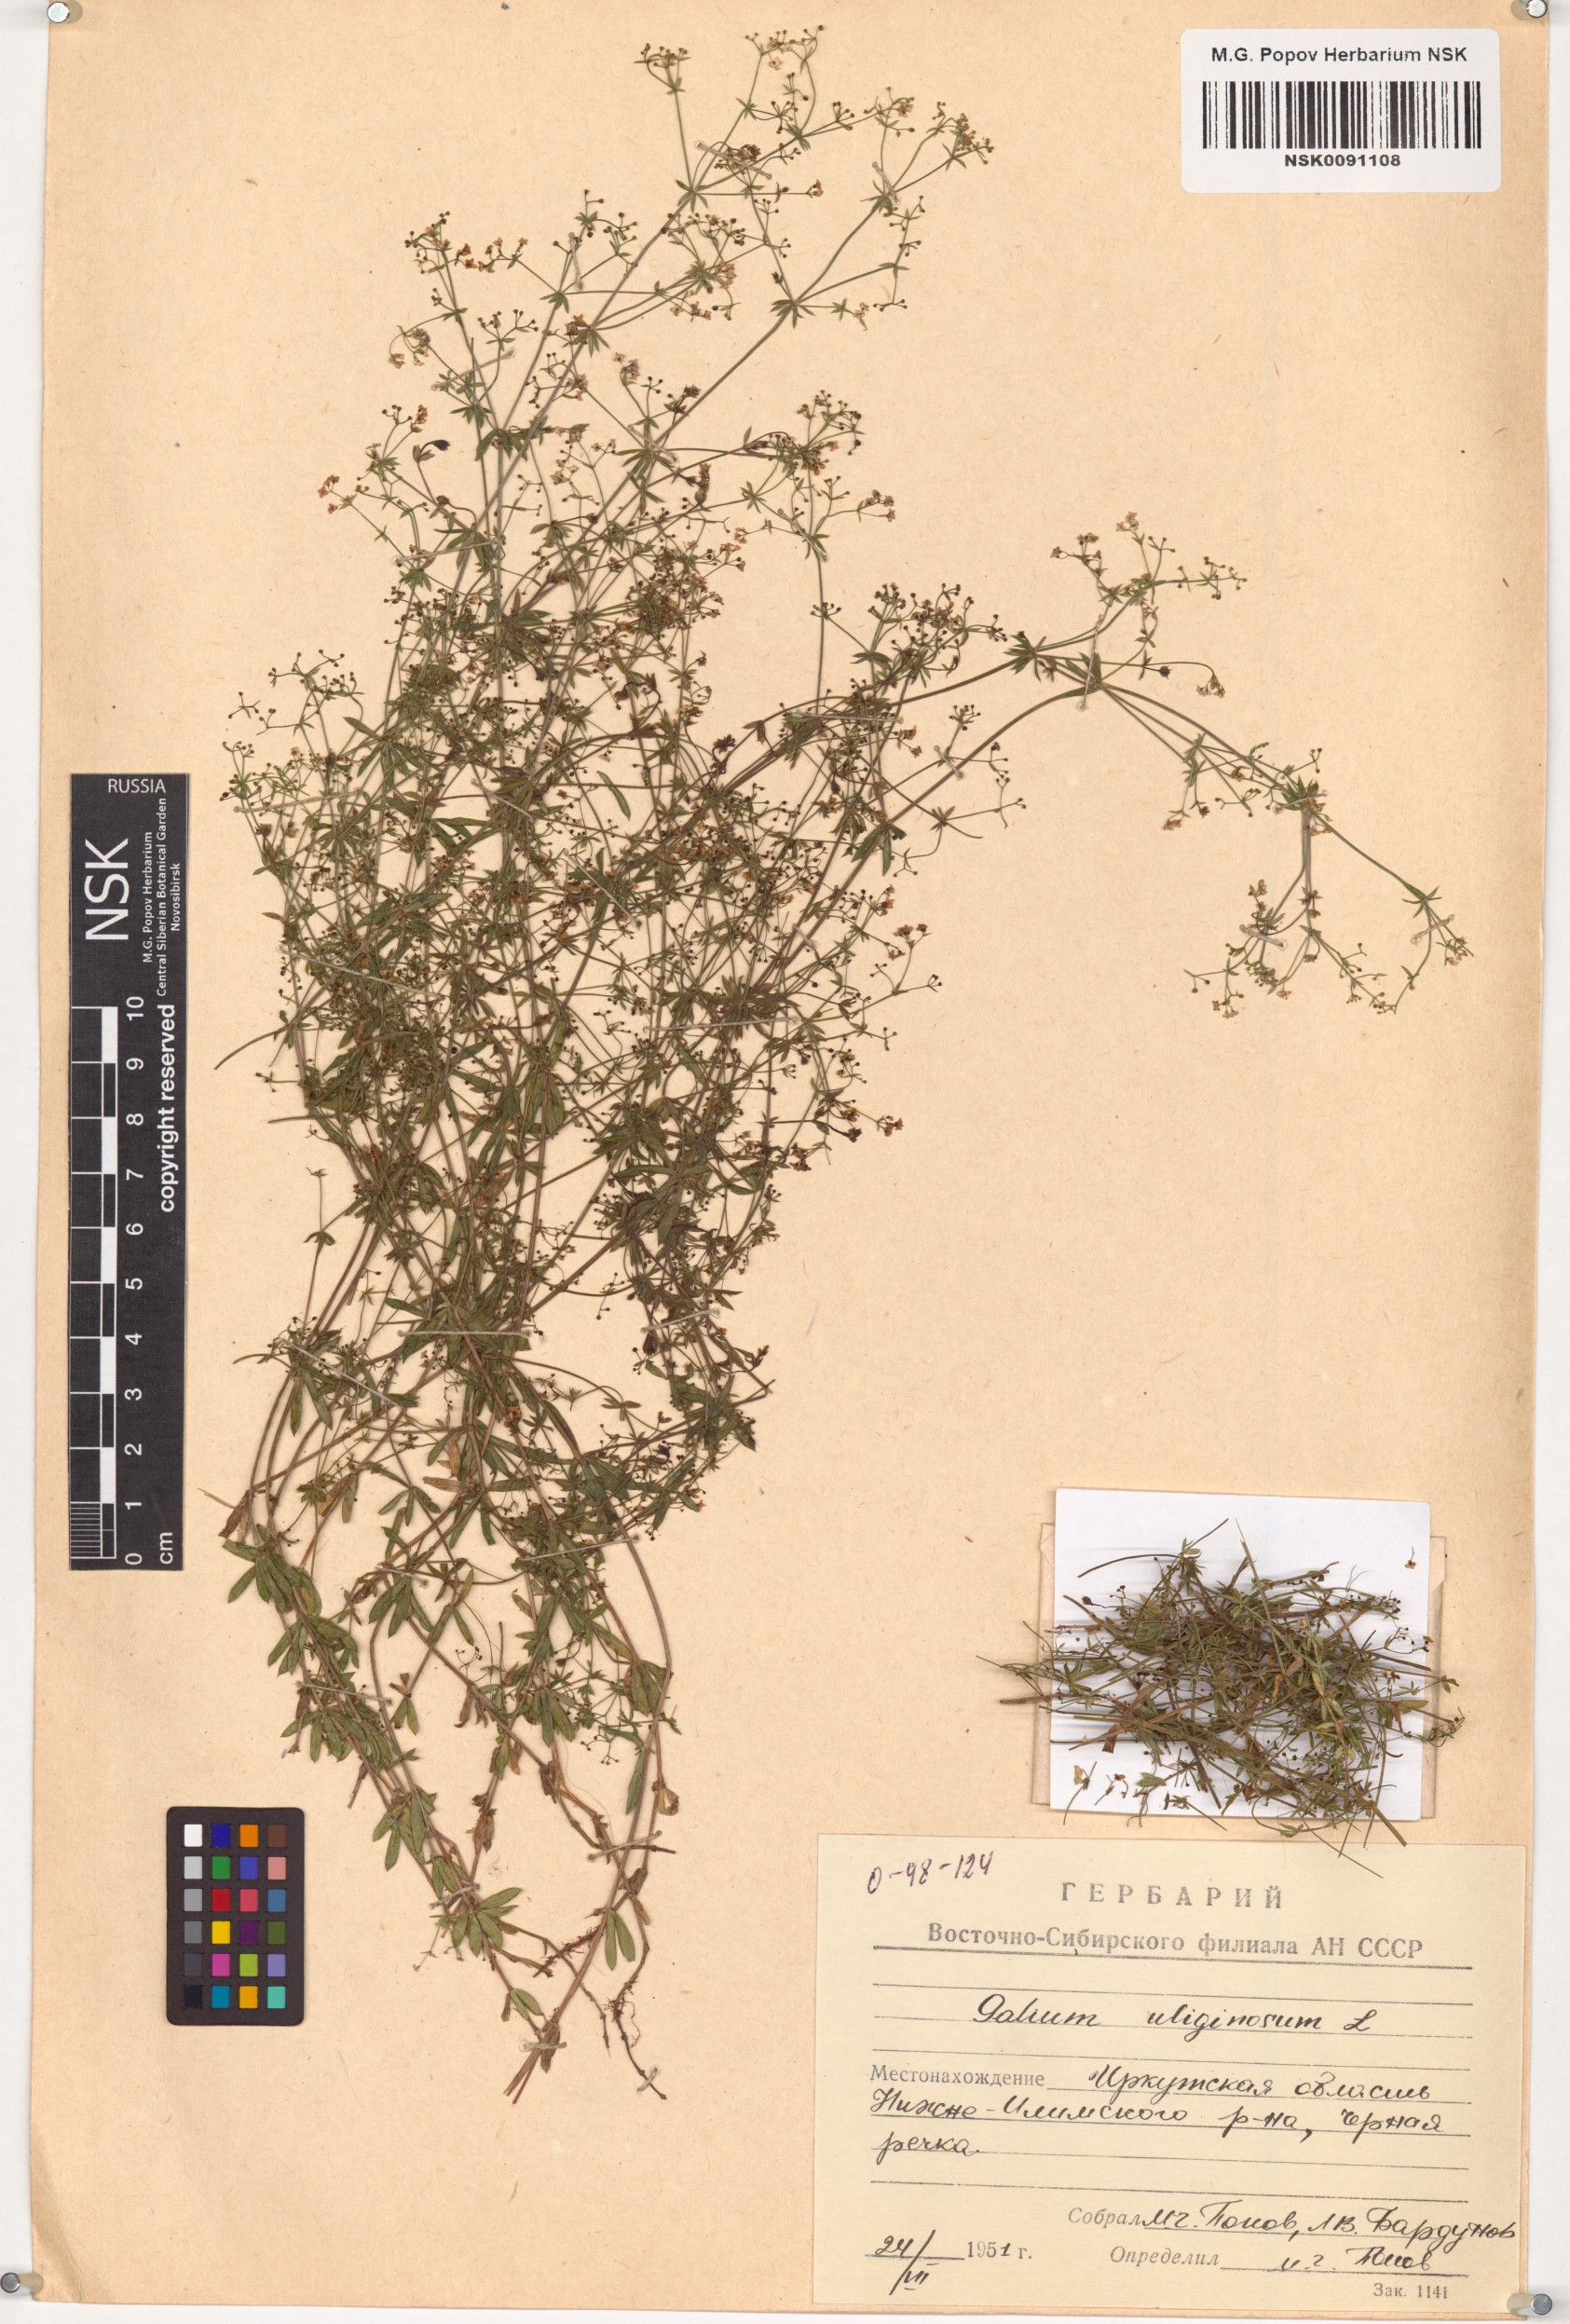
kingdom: Plantae
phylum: Tracheophyta
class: Magnoliopsida
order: Gentianales
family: Rubiaceae
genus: Galium
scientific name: Galium uliginosum
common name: Fen bedstraw
